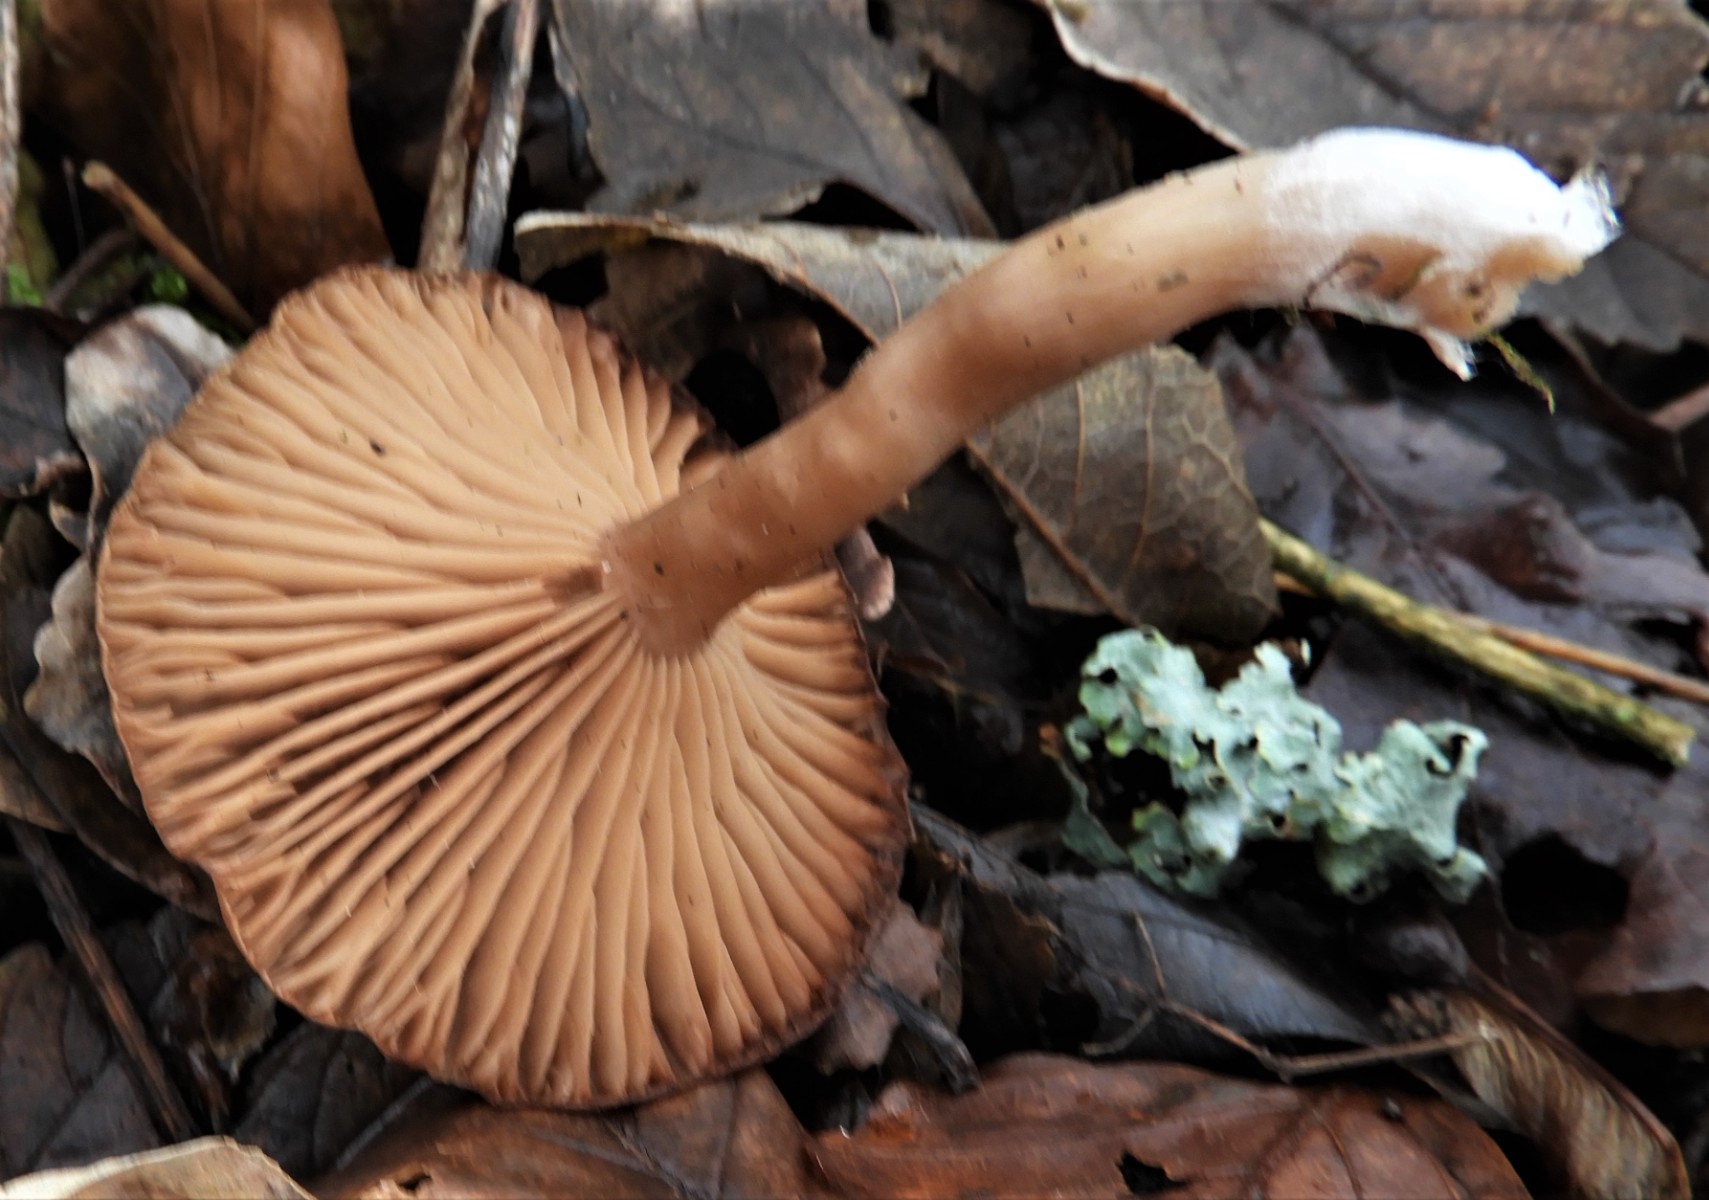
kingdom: Fungi
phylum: Basidiomycota
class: Agaricomycetes
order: Agaricales
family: Pseudoclitocybaceae
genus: Pseudoclitocybe
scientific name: Pseudoclitocybe cyathiformis
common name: almindelig bægertragthat
